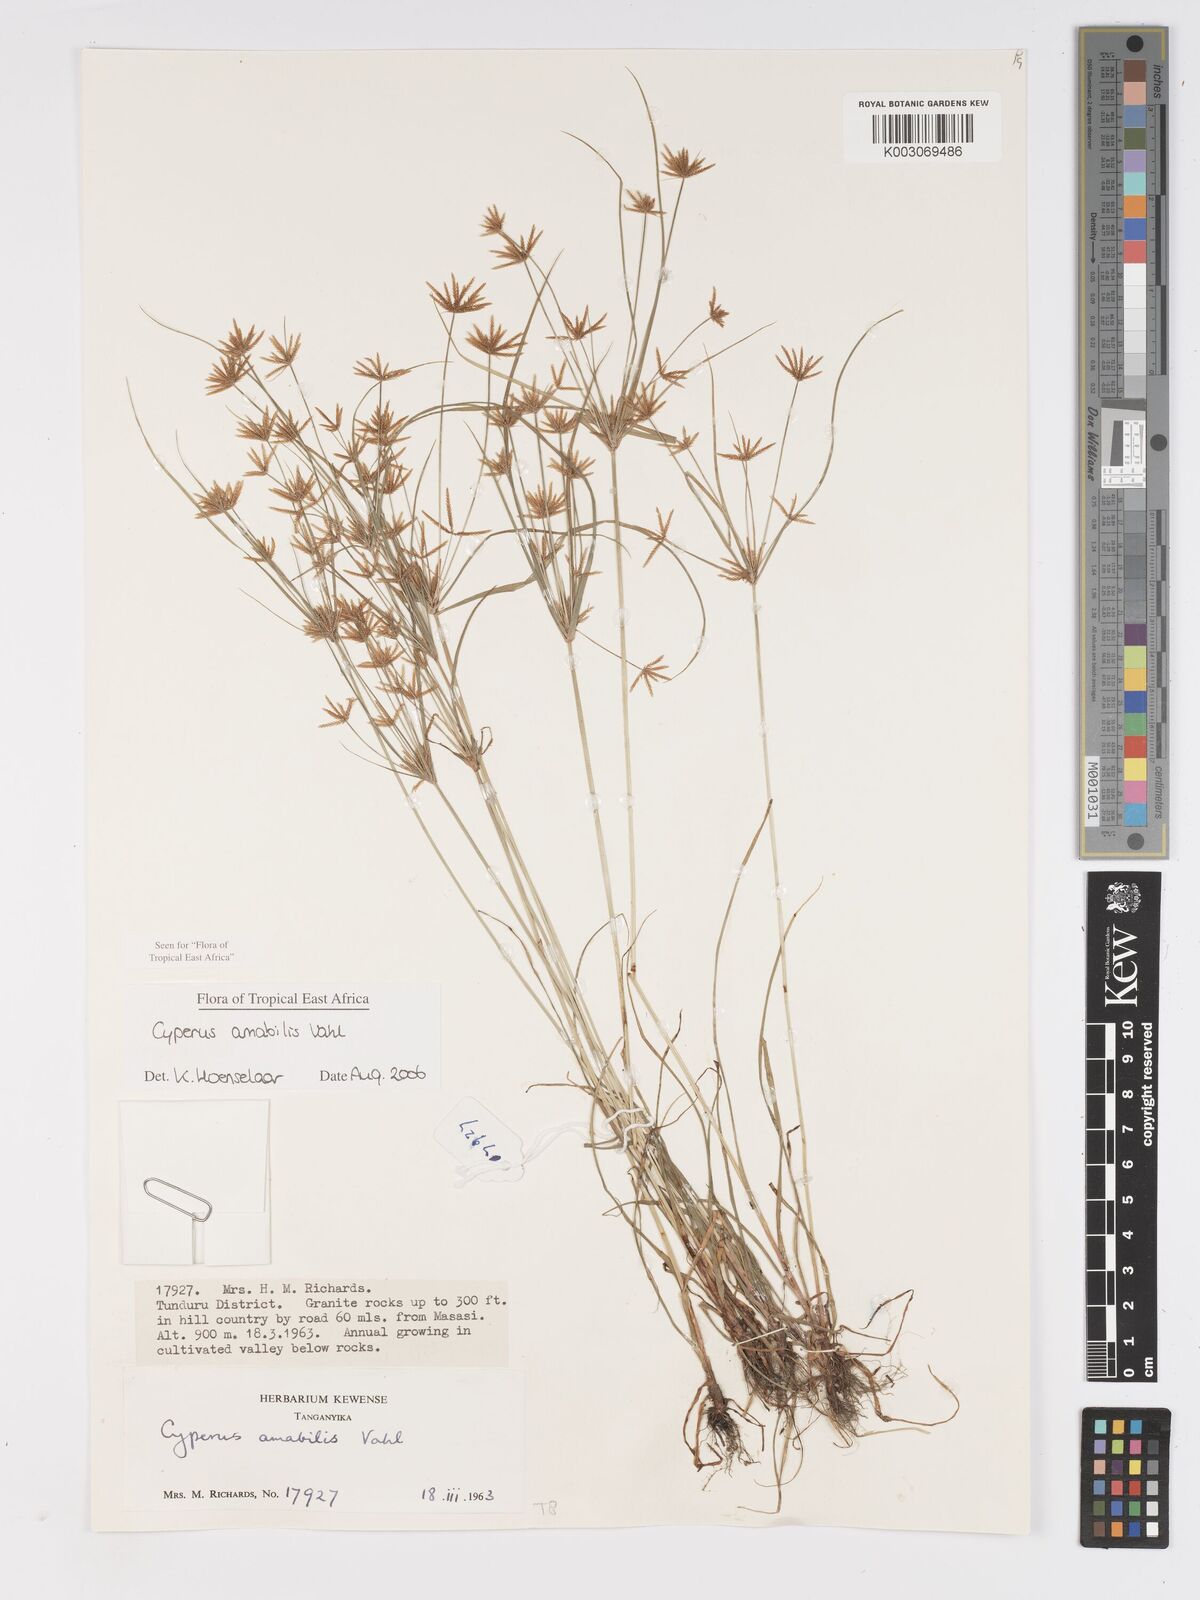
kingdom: Plantae
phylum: Tracheophyta
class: Liliopsida
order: Poales
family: Cyperaceae
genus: Cyperus
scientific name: Cyperus amabilis
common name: Foothill flat sedge
